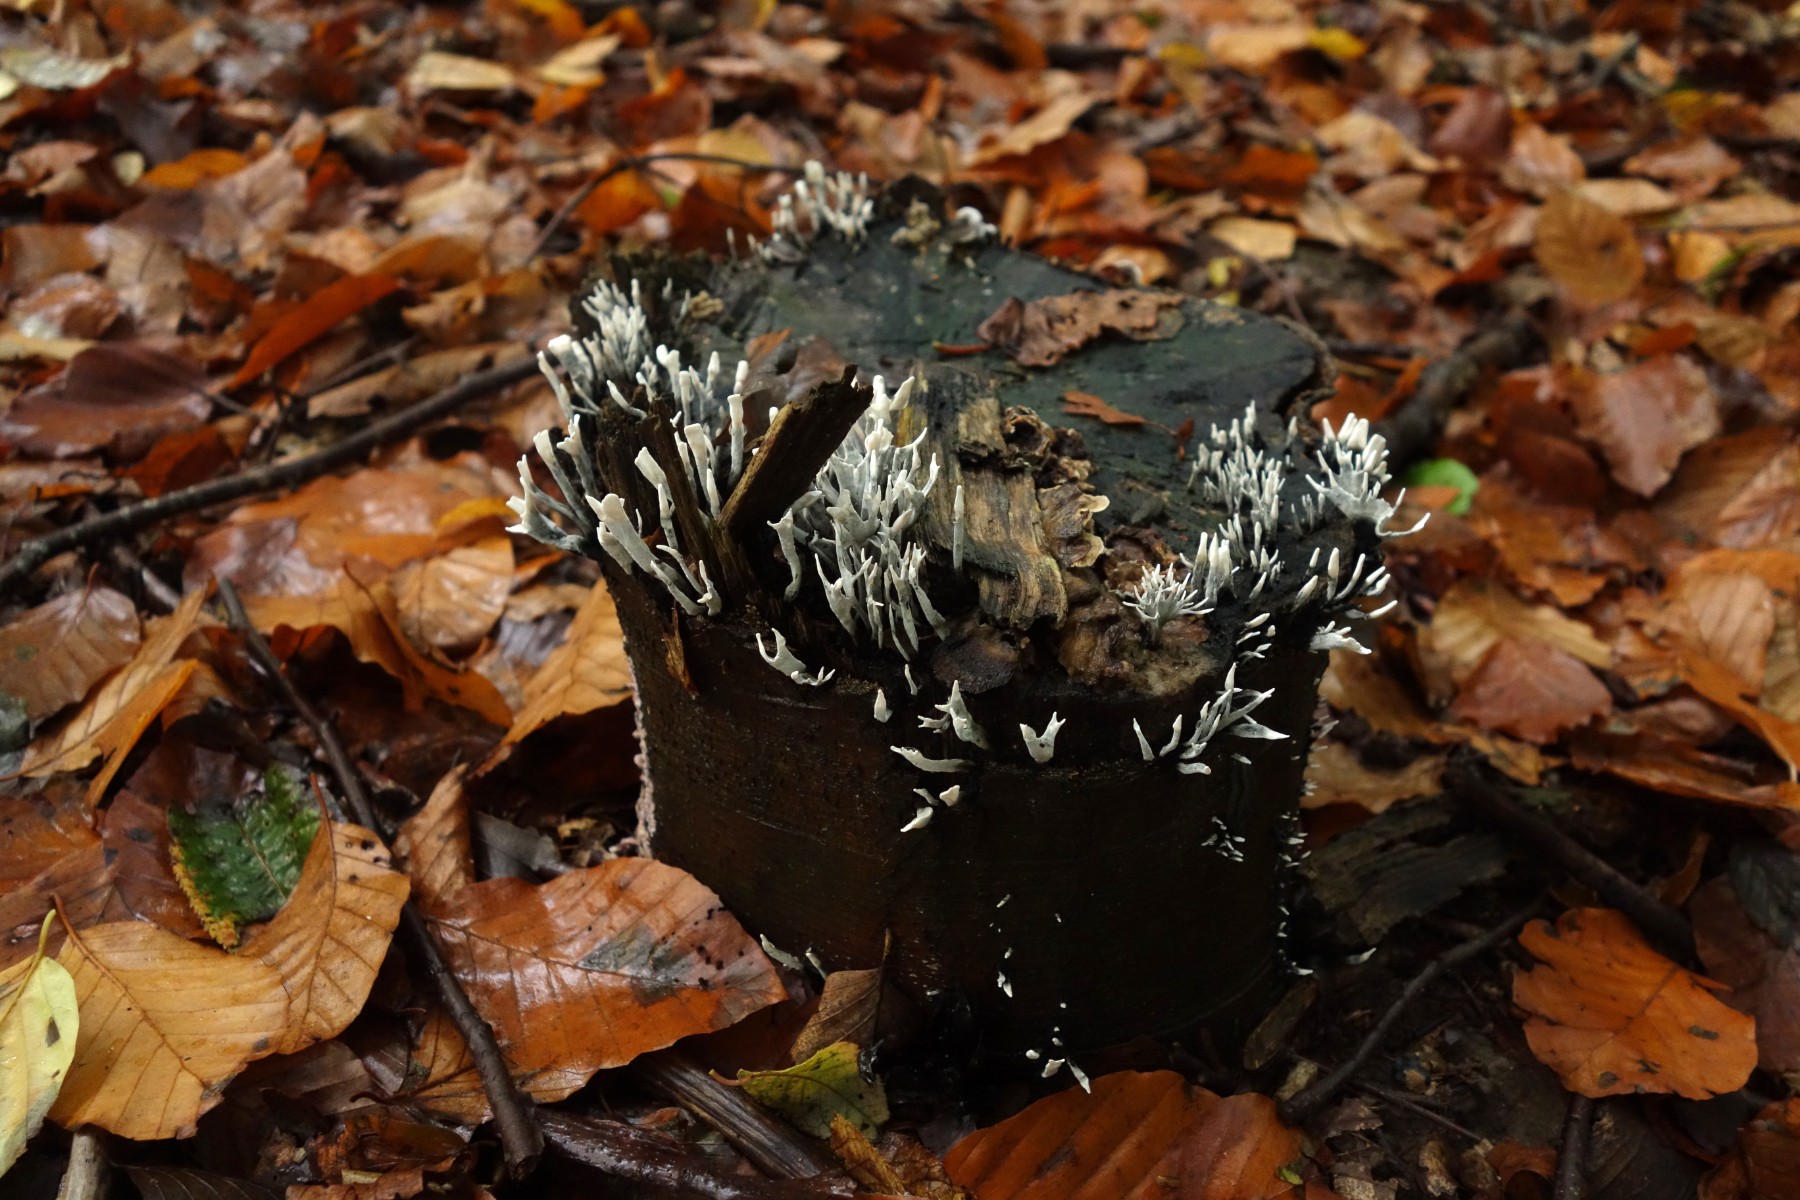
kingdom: Fungi
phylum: Ascomycota
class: Sordariomycetes
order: Xylariales
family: Xylariaceae
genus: Xylaria
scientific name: Xylaria hypoxylon
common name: grenet stødsvamp
